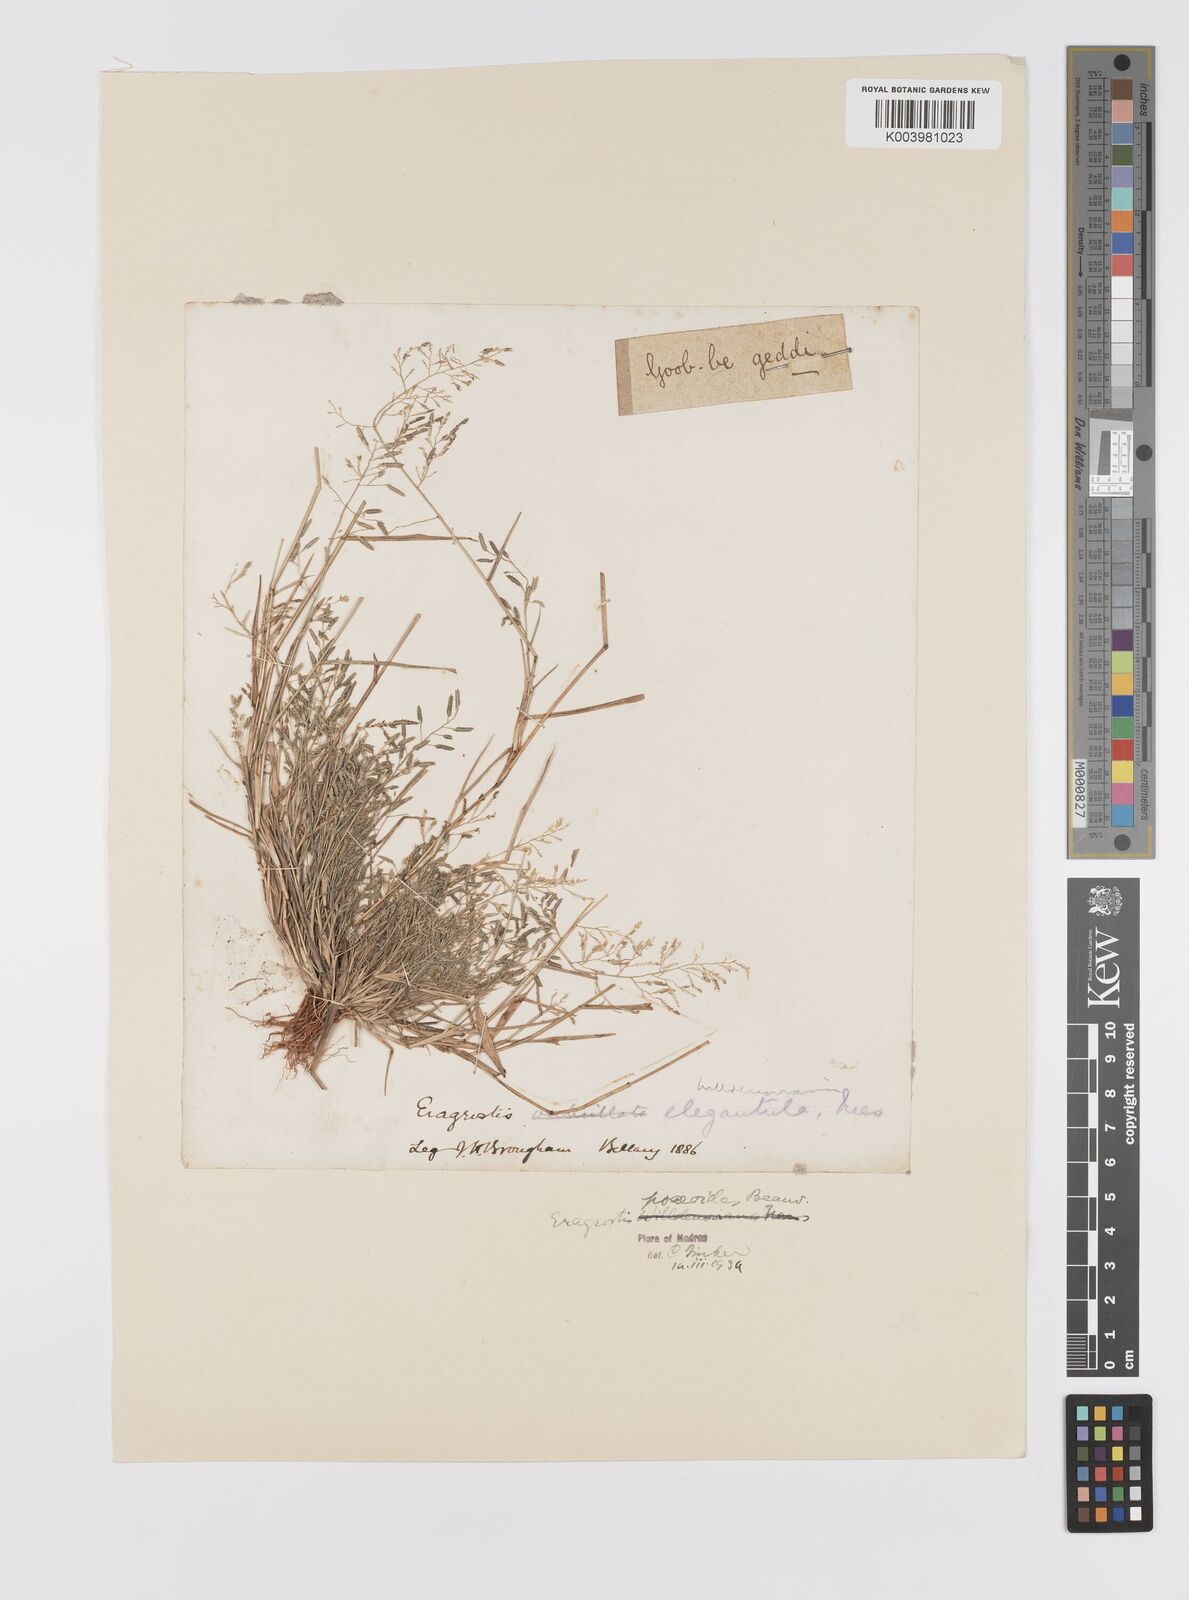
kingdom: Plantae
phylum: Tracheophyta
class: Liliopsida
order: Poales
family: Poaceae
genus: Eragrostis
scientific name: Eragrostis minor
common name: Small love-grass
